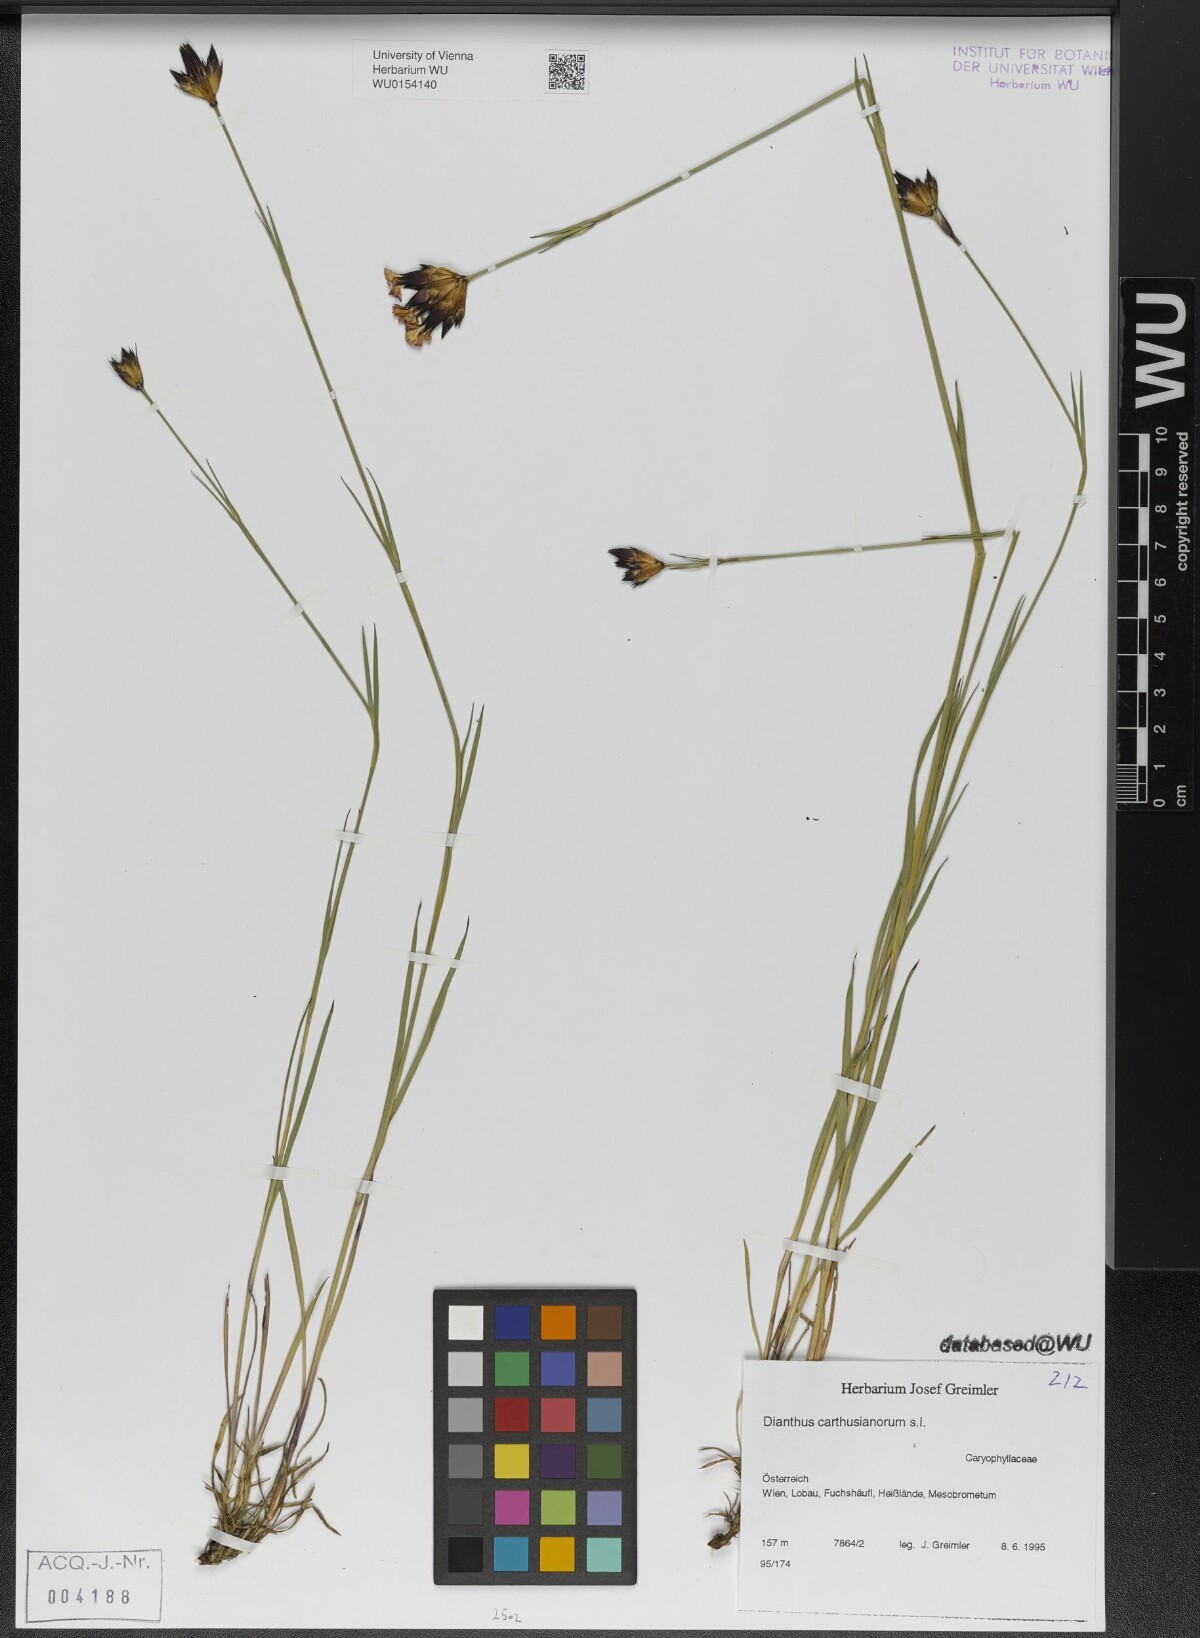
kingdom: Plantae
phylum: Tracheophyta
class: Magnoliopsida
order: Caryophyllales
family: Caryophyllaceae
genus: Dianthus
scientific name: Dianthus carthusianorum
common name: Carthusian pink
